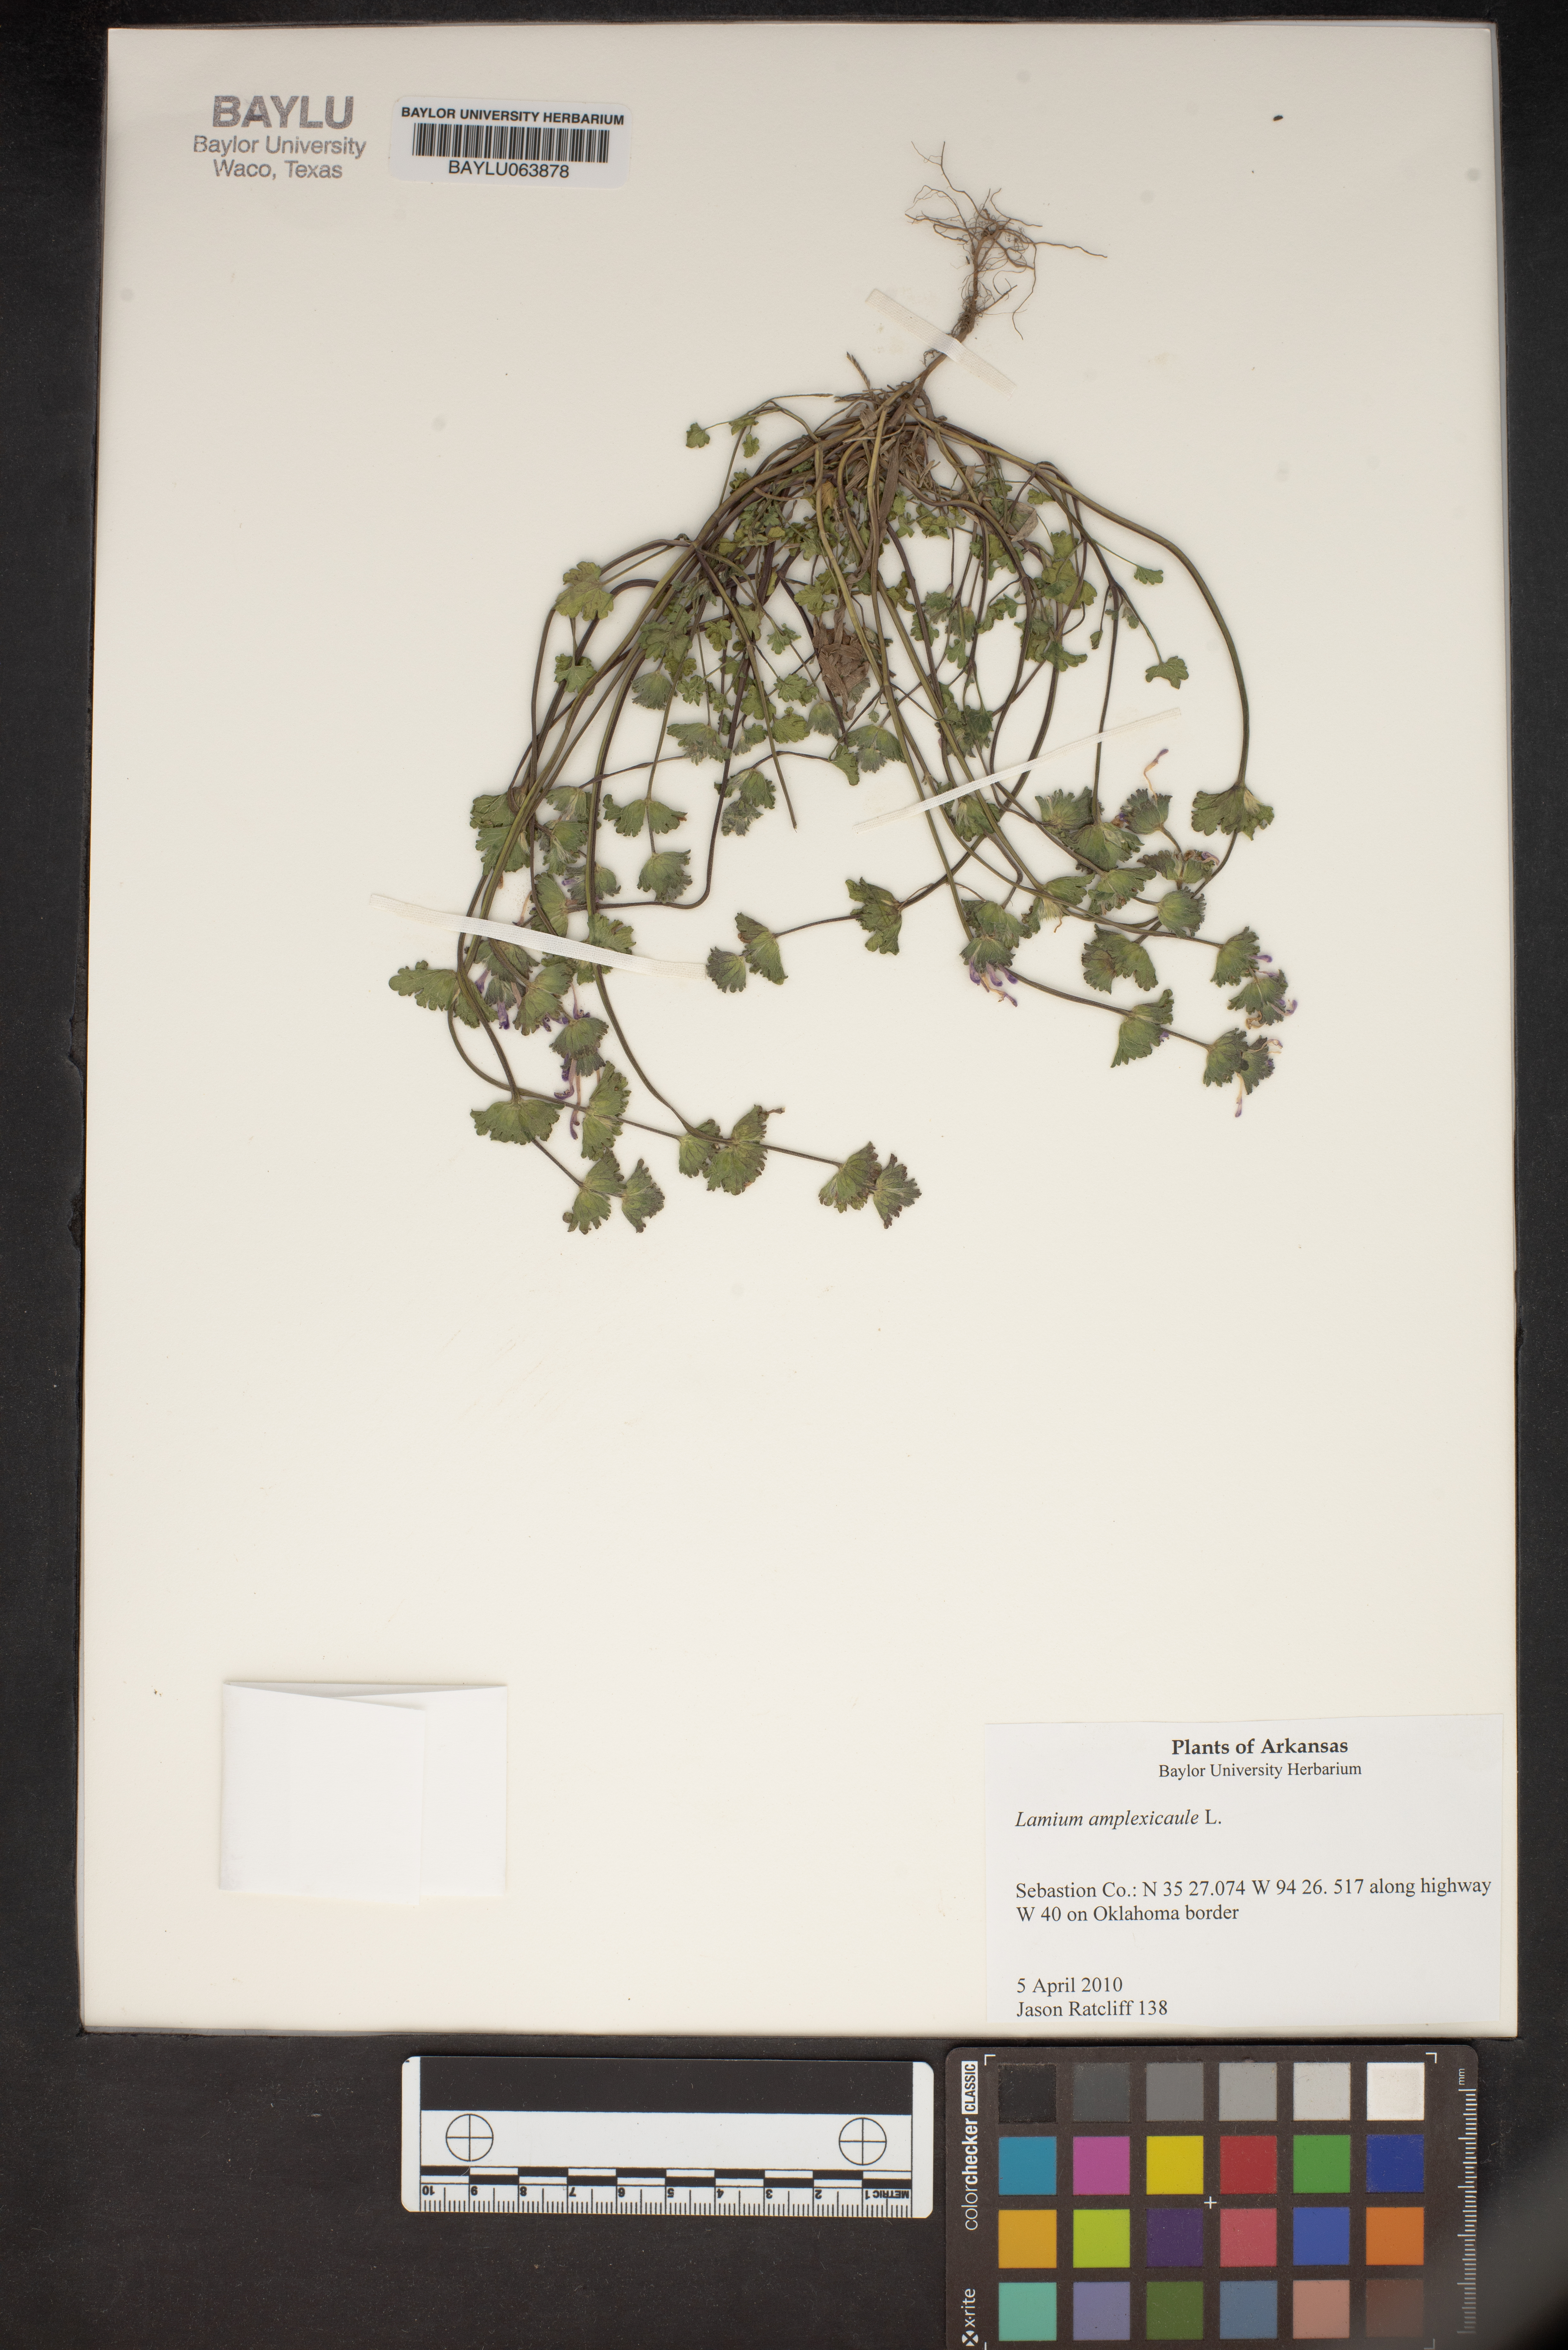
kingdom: Plantae
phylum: Tracheophyta
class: Magnoliopsida
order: Lamiales
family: Lamiaceae
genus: Lamium
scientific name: Lamium amplexicaule
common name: Henbit dead-nettle
